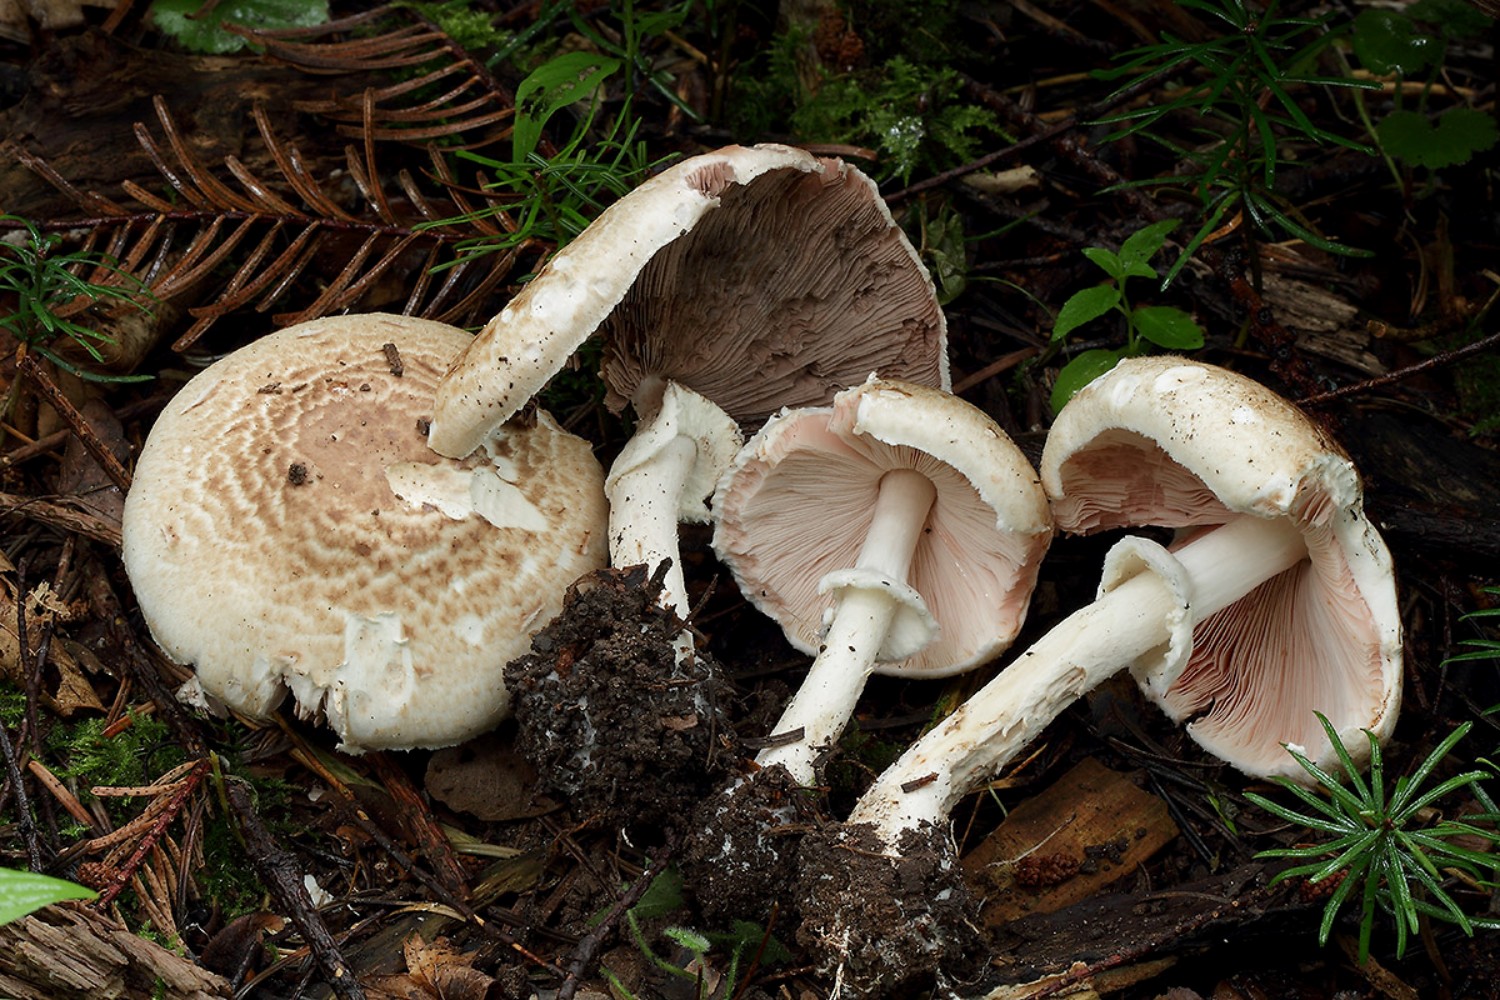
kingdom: Fungi
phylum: Basidiomycota
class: Agaricomycetes
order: Agaricales
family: Agaricaceae
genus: Agaricus
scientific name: Agaricus impudicus
